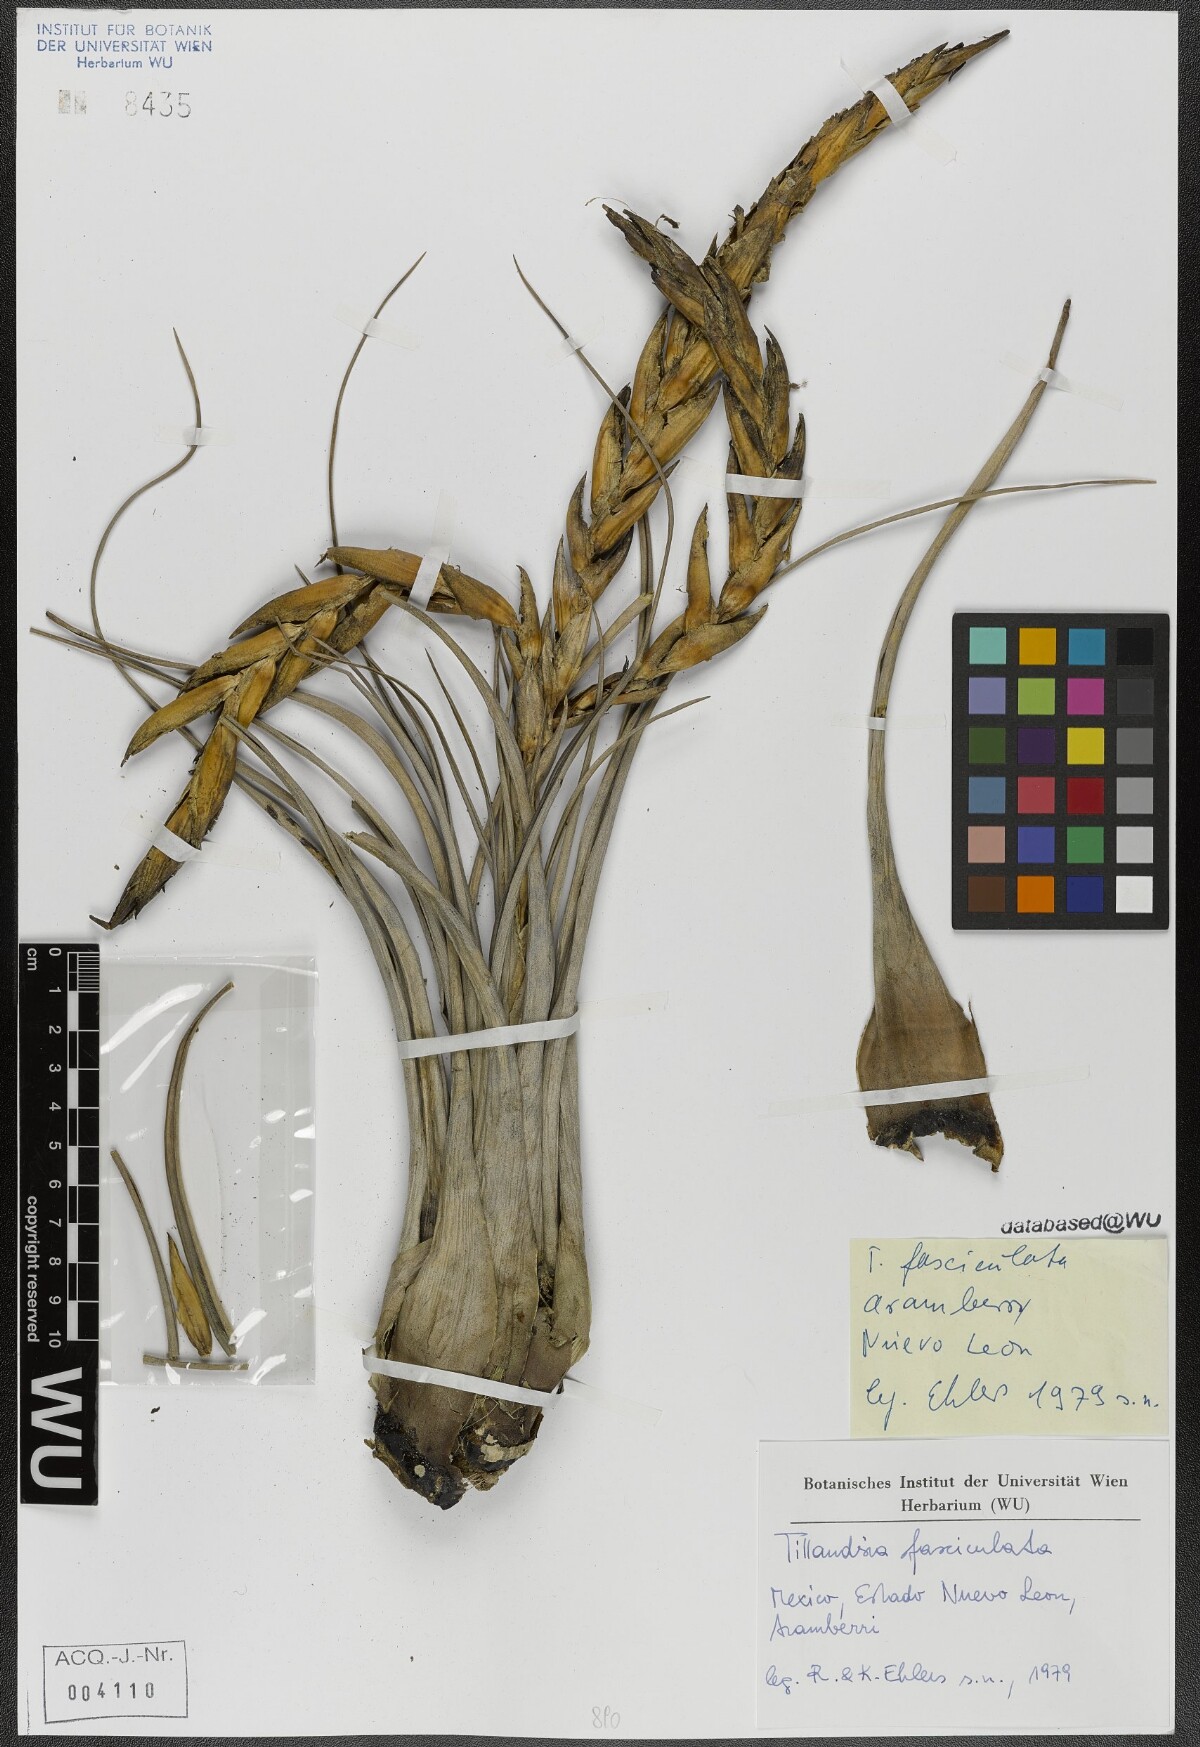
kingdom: Plantae
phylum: Tracheophyta
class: Liliopsida
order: Poales
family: Bromeliaceae
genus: Tillandsia
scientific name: Tillandsia butzii
